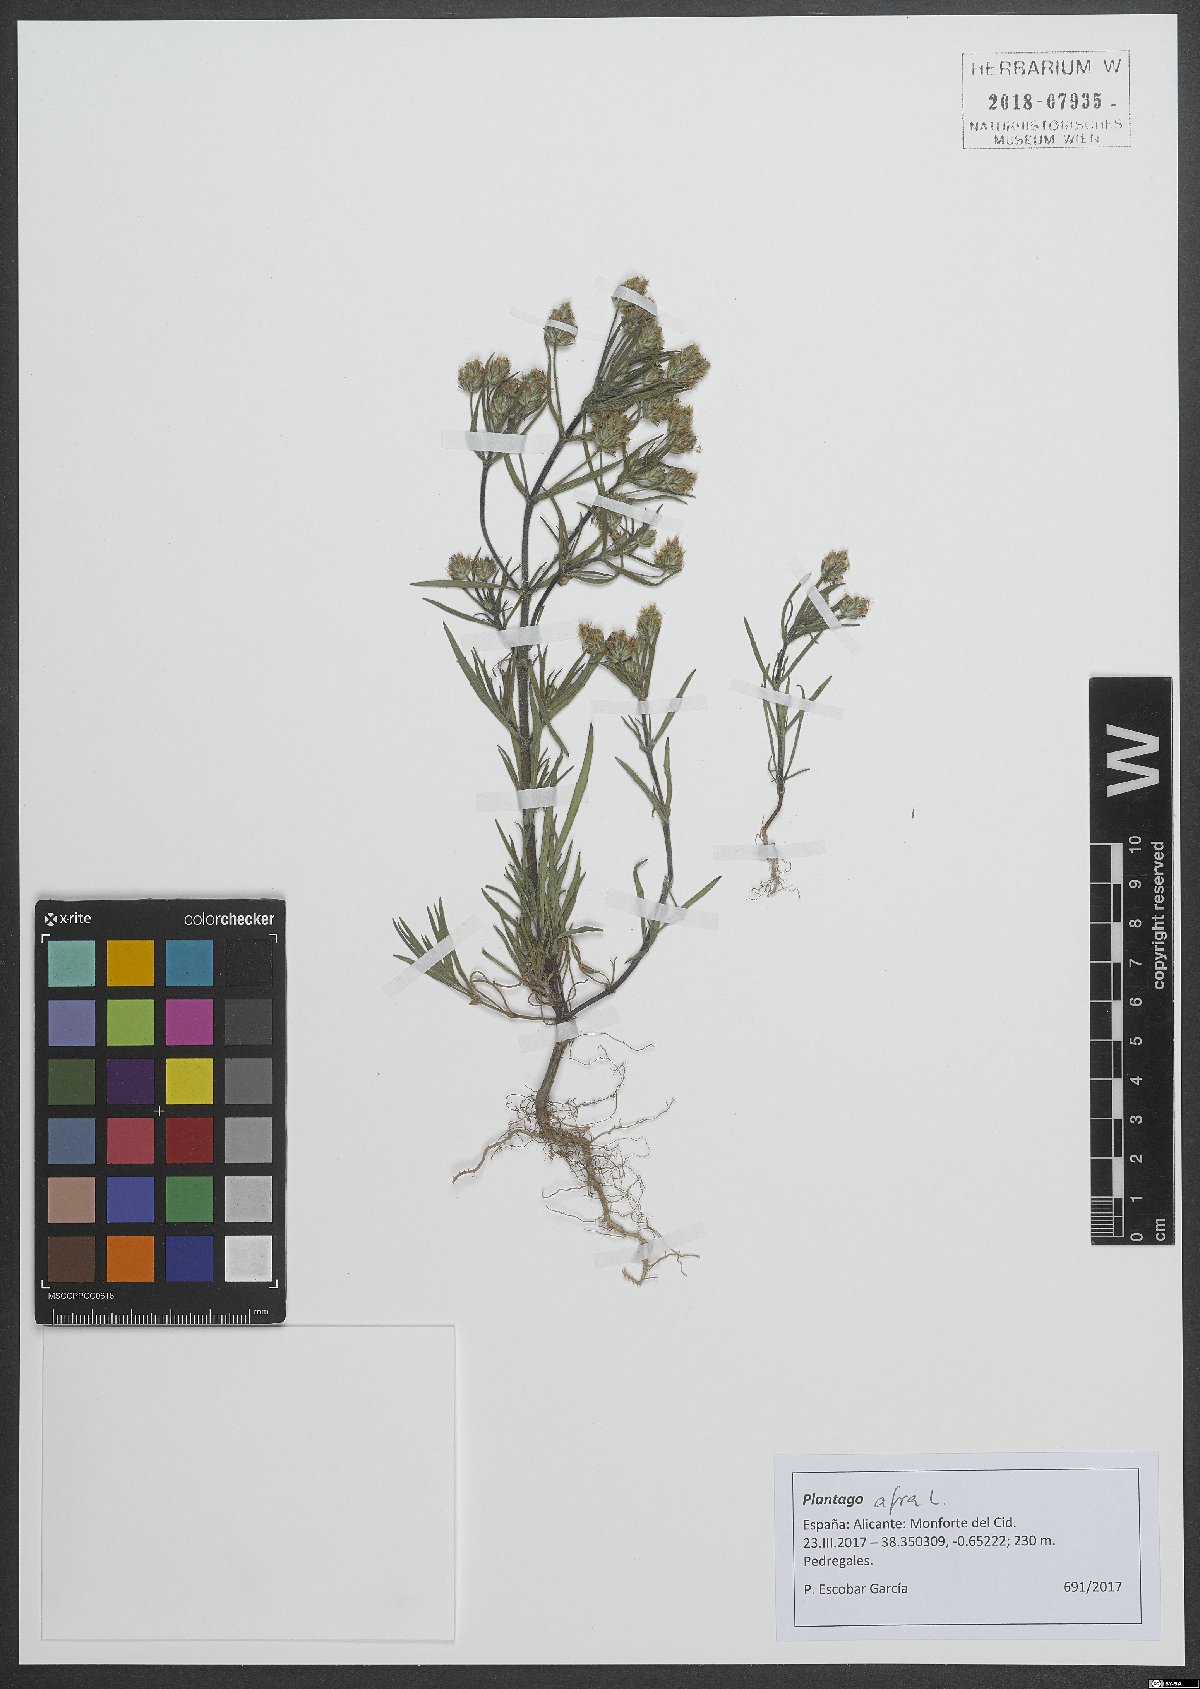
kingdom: Plantae
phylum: Tracheophyta
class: Magnoliopsida
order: Lamiales
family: Plantaginaceae
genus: Plantago
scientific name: Plantago afra
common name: Glandular plantain
